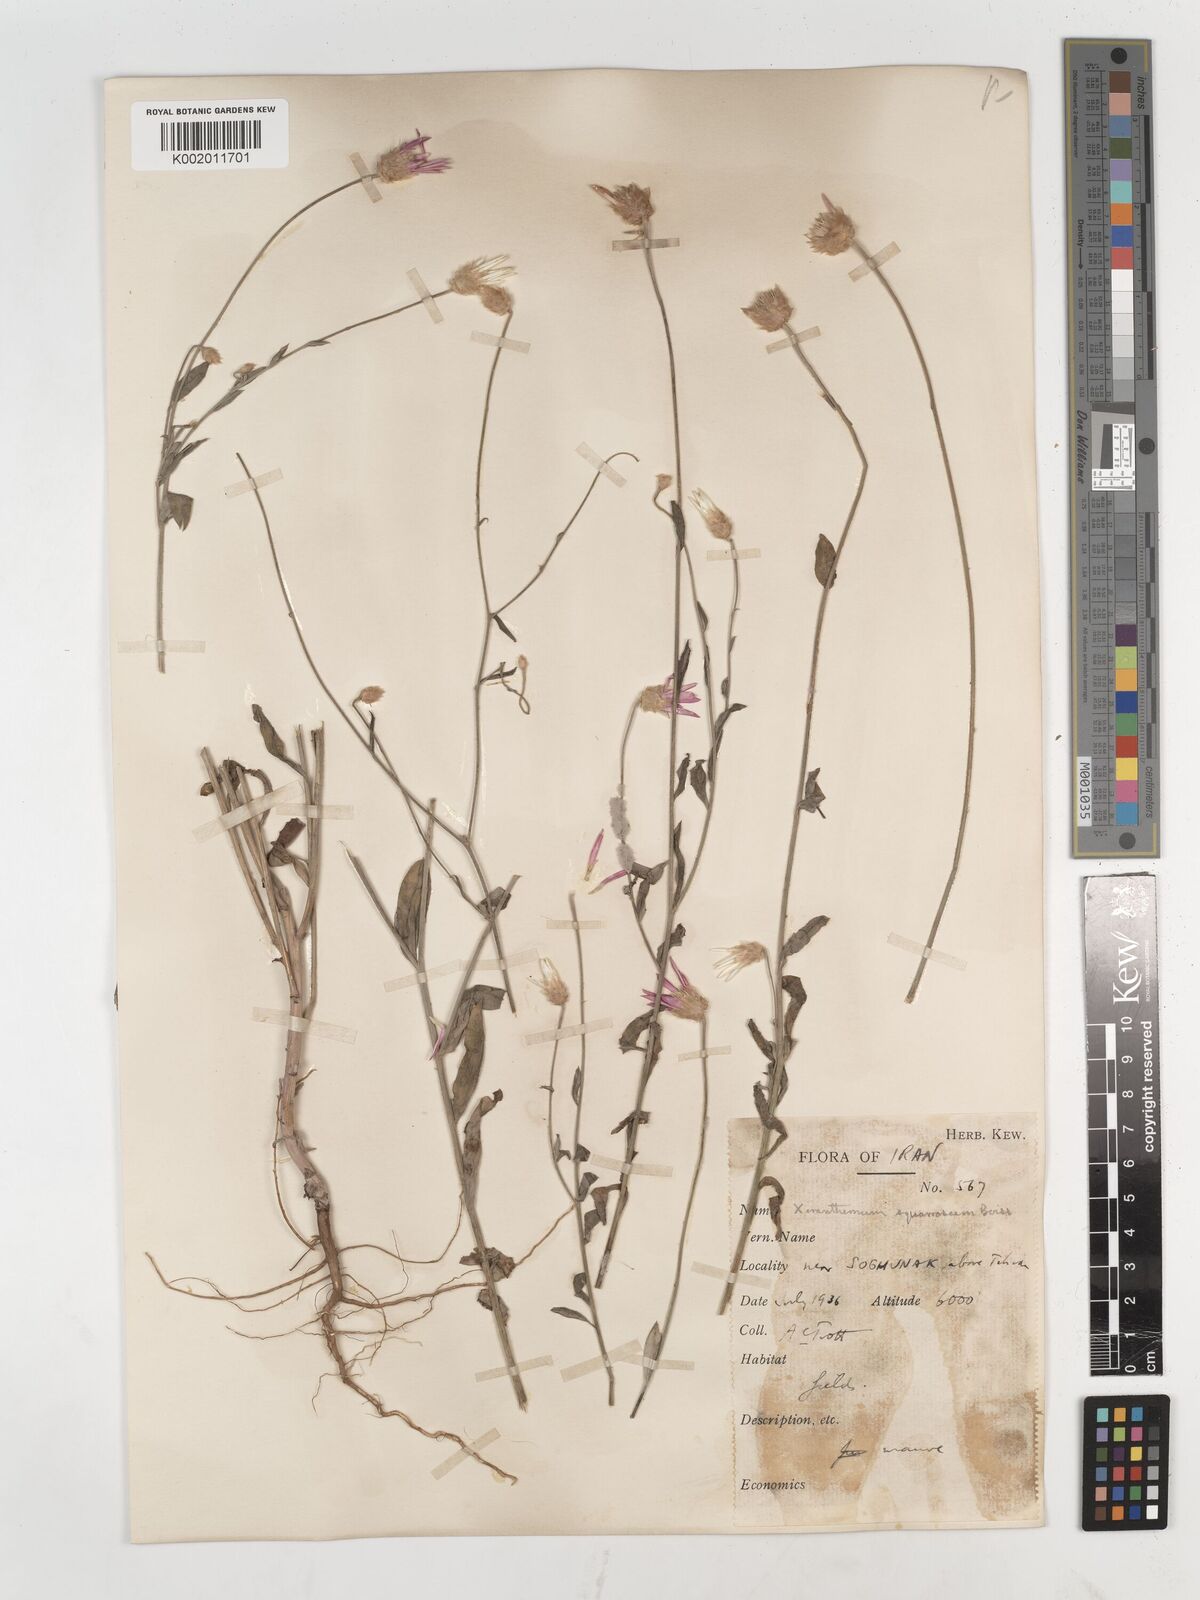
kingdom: Plantae
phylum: Tracheophyta
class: Magnoliopsida
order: Asterales
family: Asteraceae
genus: Xeranthemum
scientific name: Xeranthemum squarrosum
